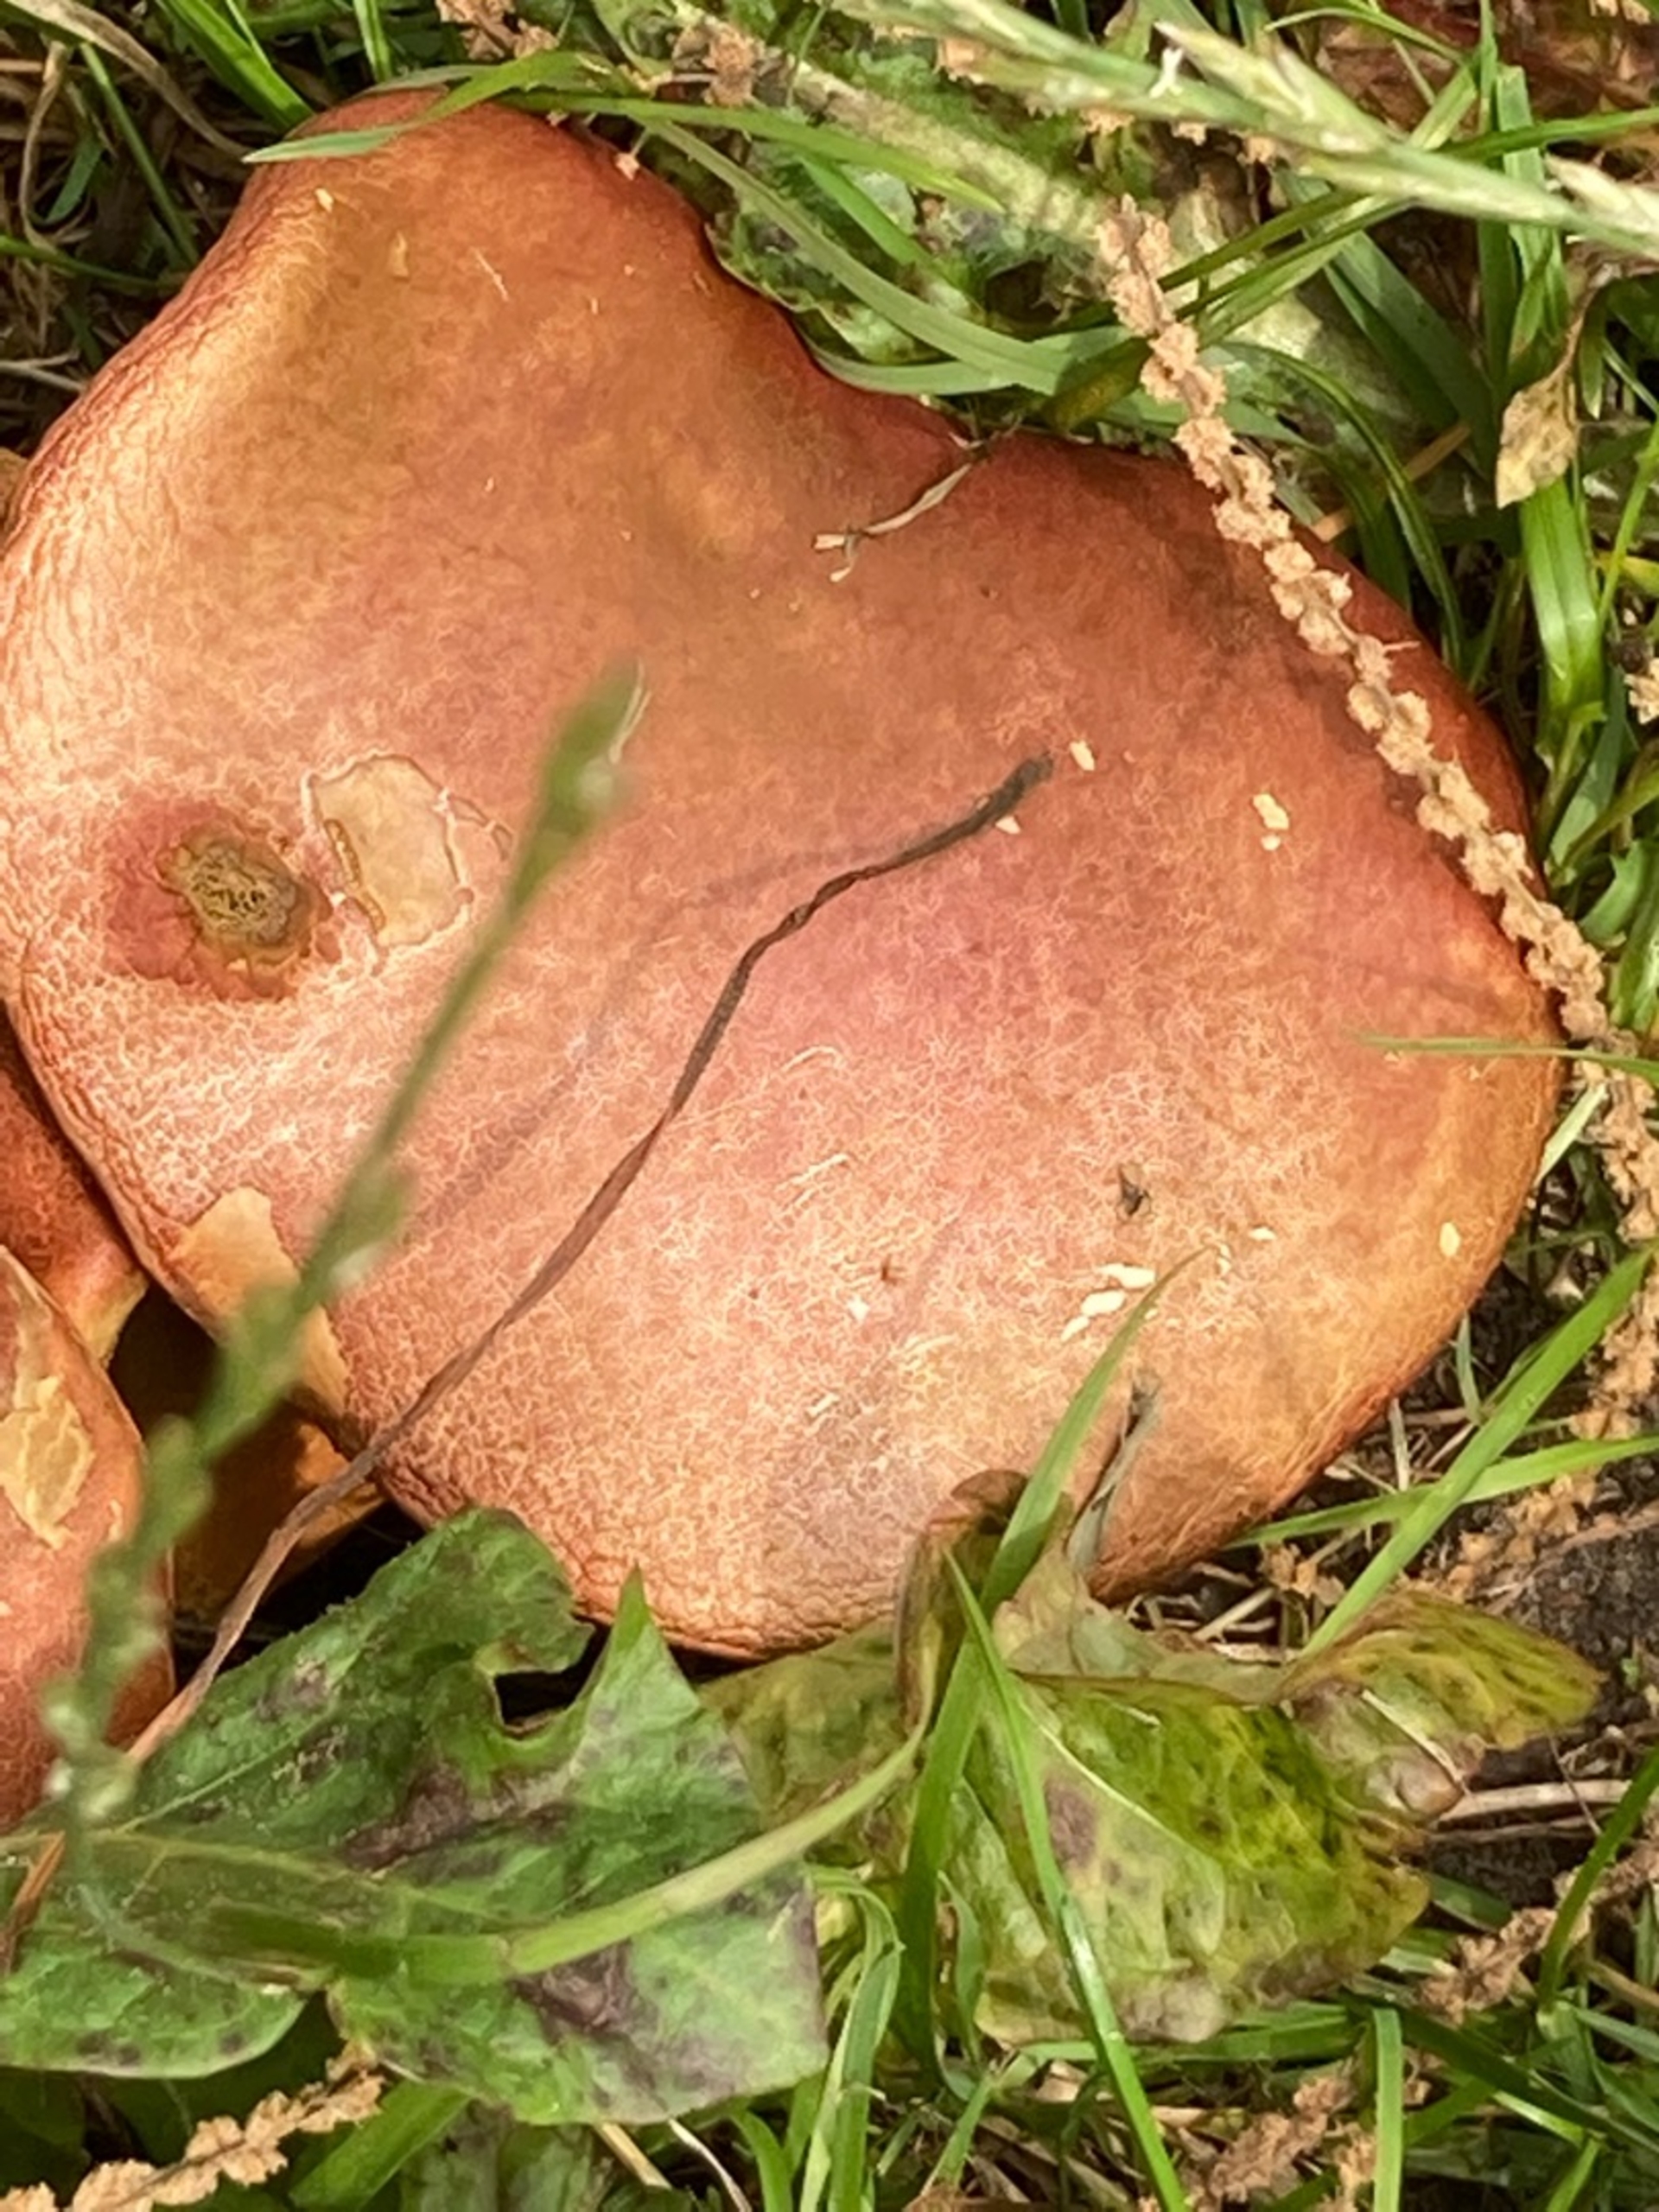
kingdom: Fungi
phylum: Basidiomycota
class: Agaricomycetes
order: Boletales
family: Boletaceae
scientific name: Boletaceae
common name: Rørhatfamilien
